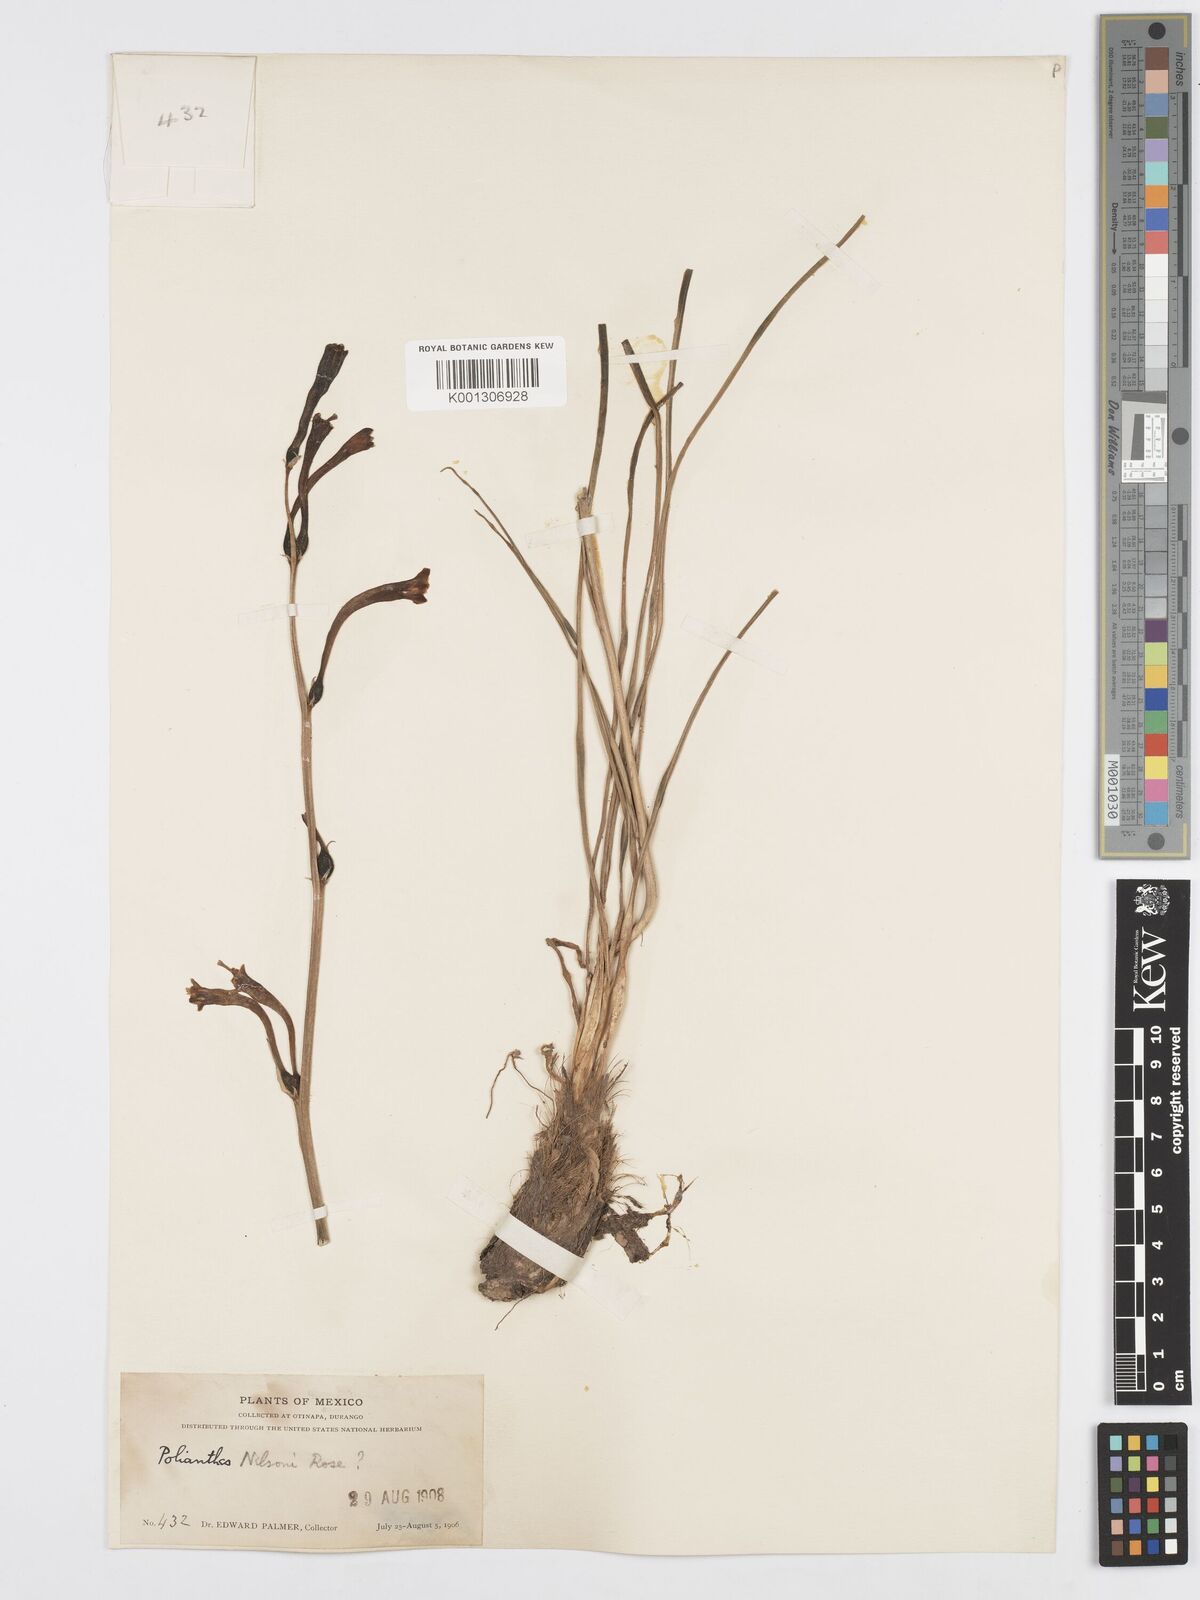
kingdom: Plantae
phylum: Tracheophyta
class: Liliopsida
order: Asparagales
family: Asparagaceae
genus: Agave
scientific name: Agave neonelsonii
